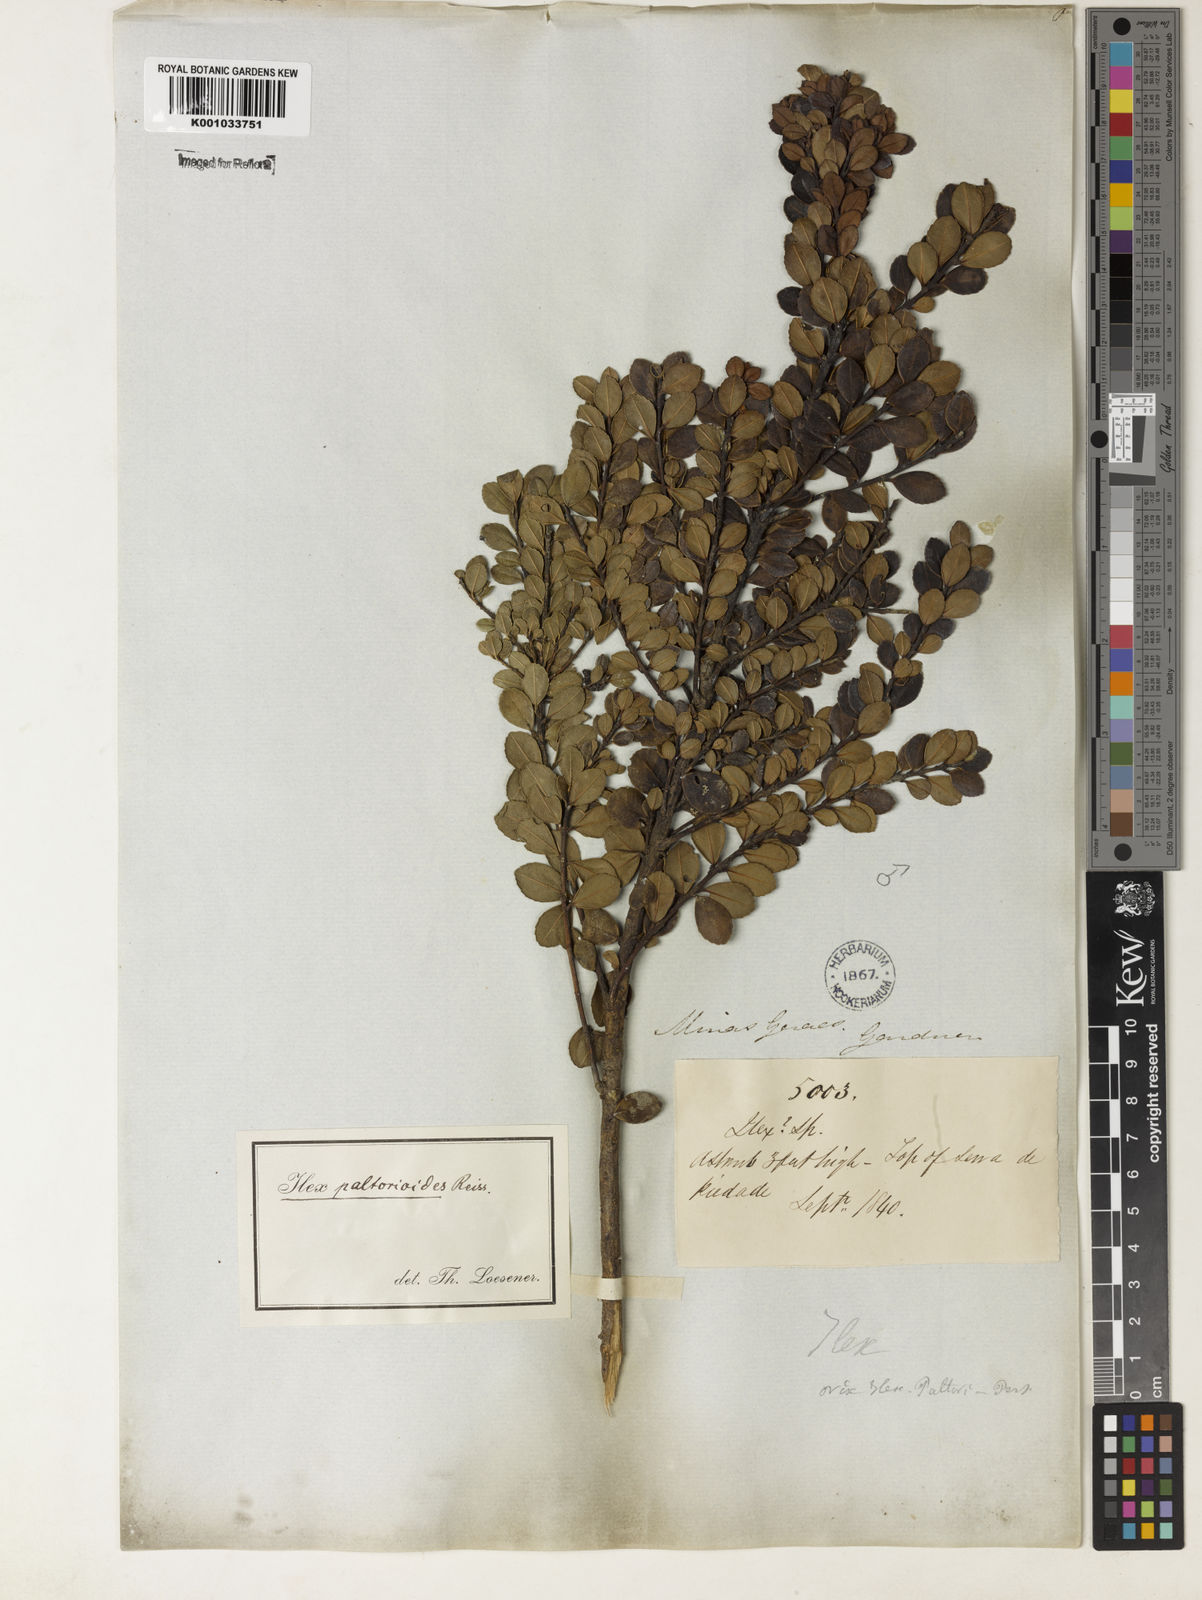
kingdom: Plantae
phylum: Tracheophyta
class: Magnoliopsida
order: Aquifoliales
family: Aquifoliaceae
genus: Ilex
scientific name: Ilex paltorioides
